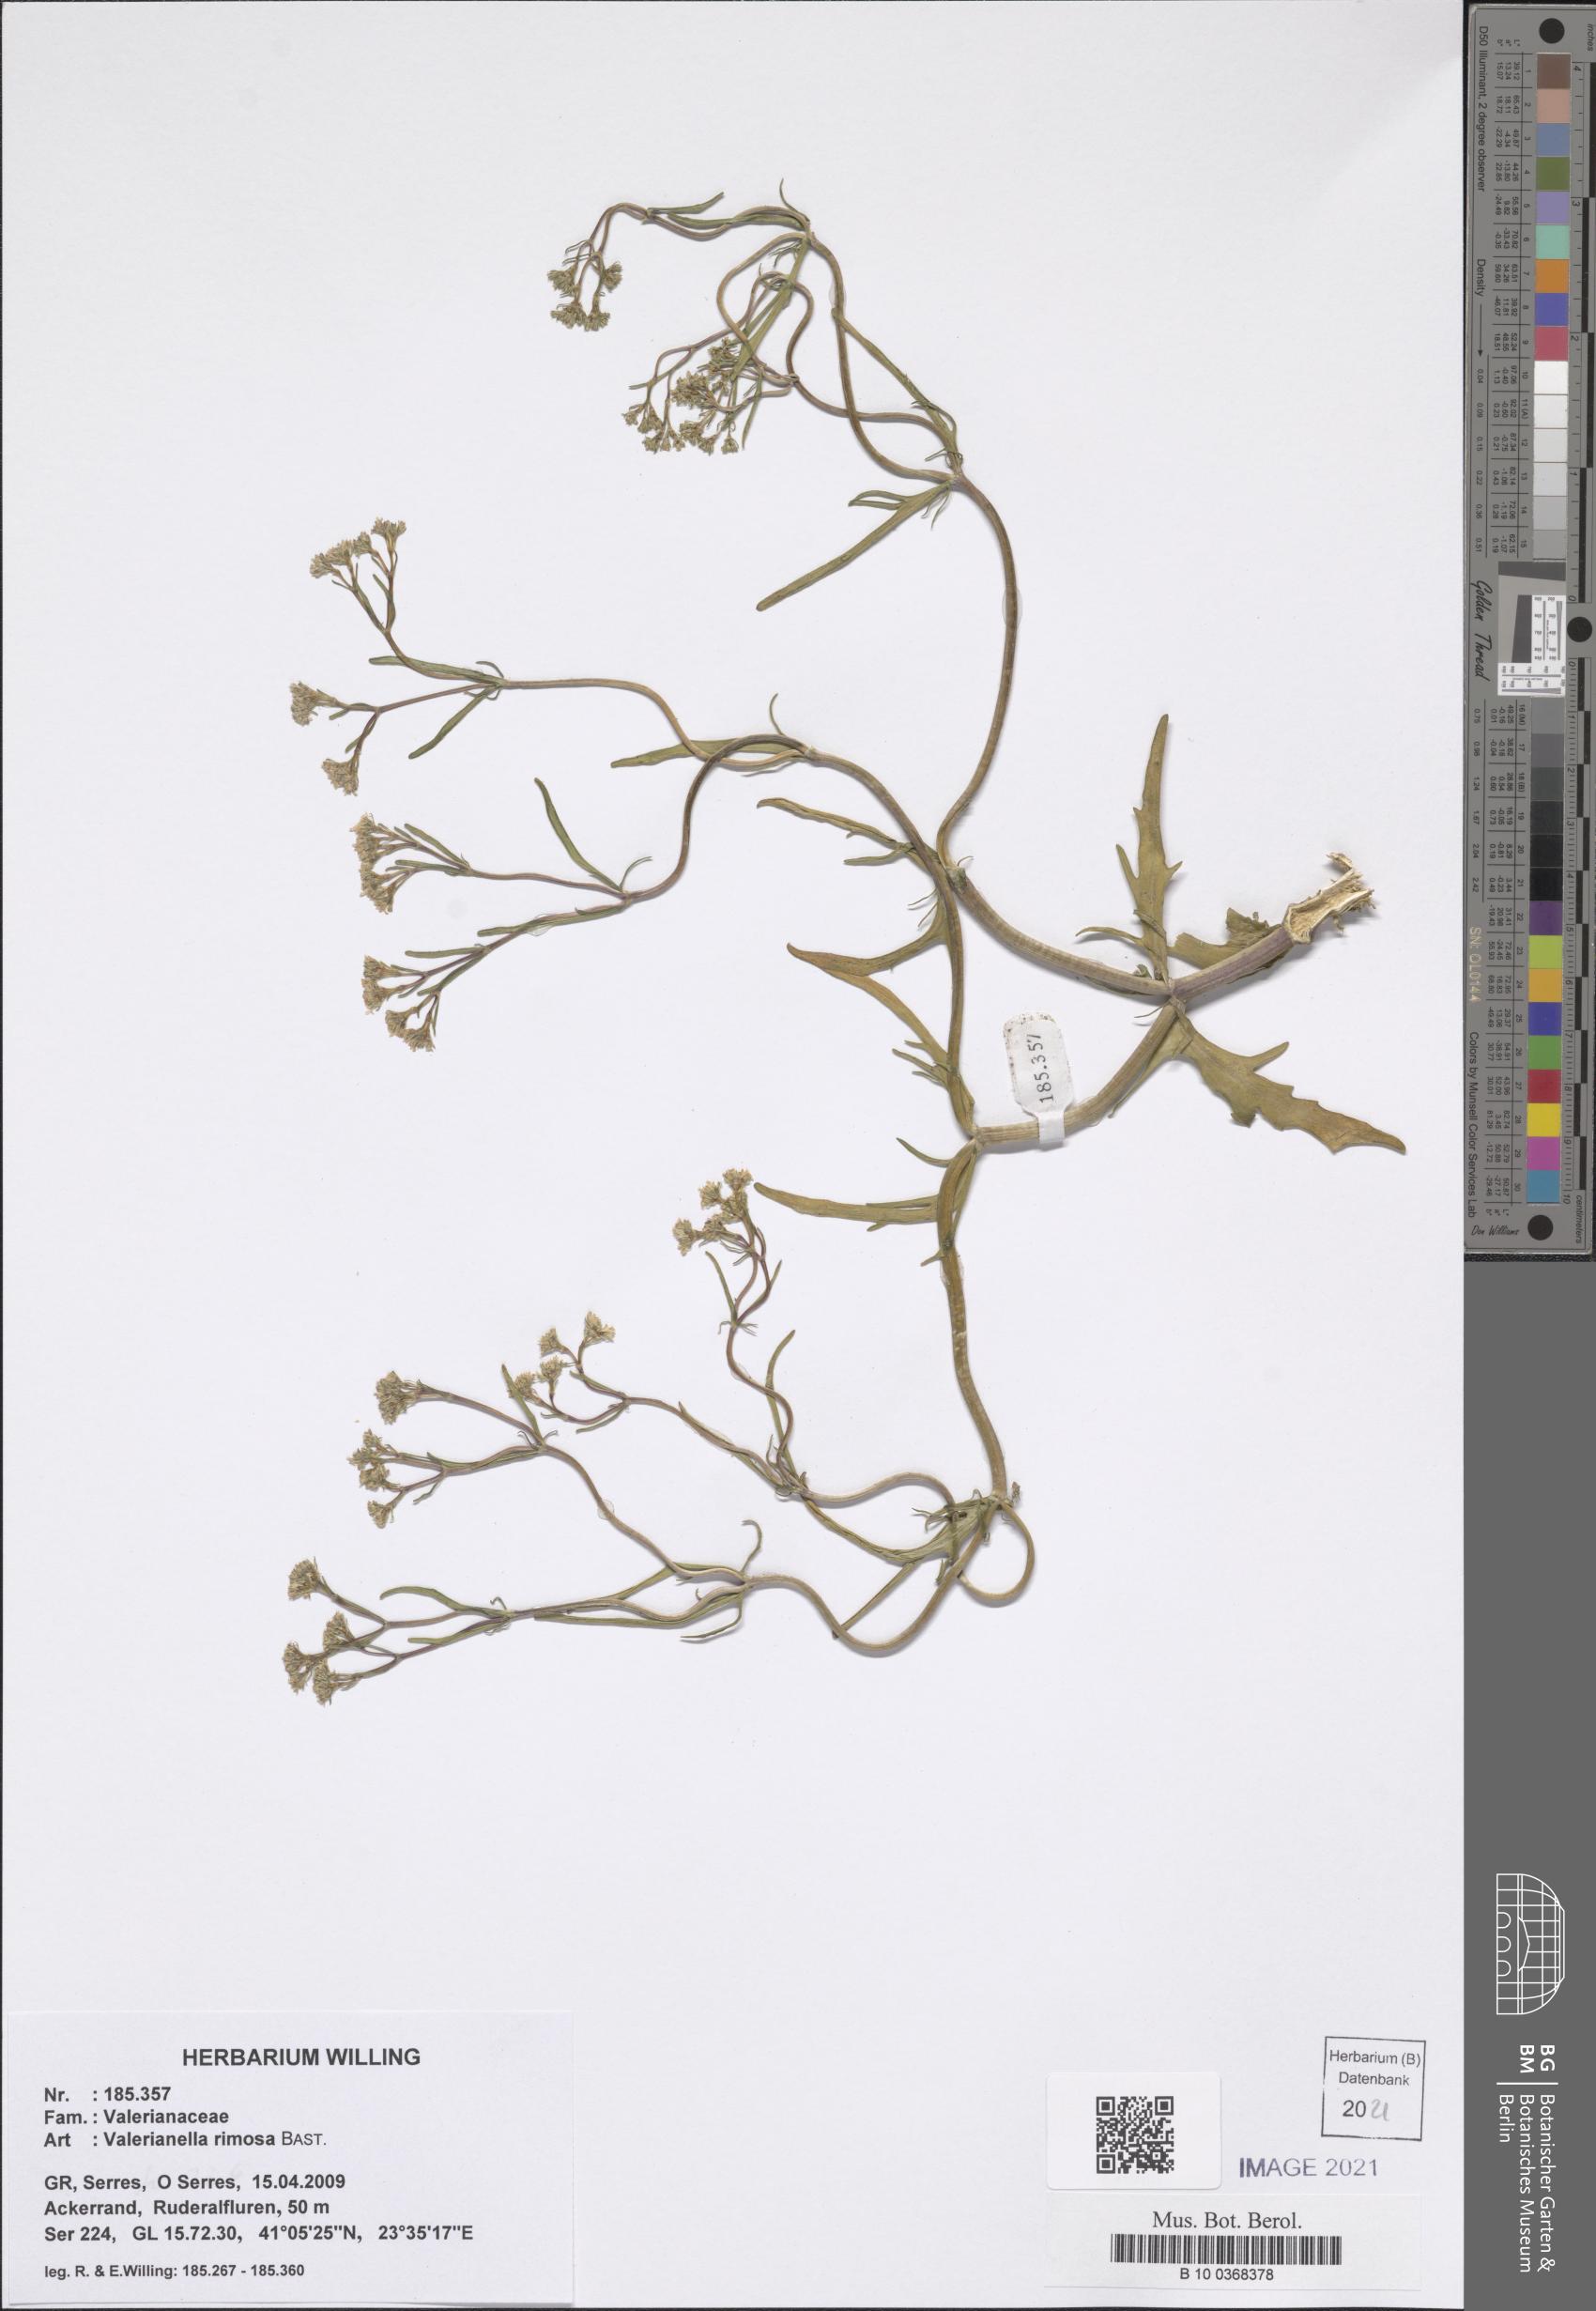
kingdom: Plantae
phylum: Tracheophyta
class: Magnoliopsida
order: Dipsacales
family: Caprifoliaceae
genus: Valerianella
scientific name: Valerianella rimosa
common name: Broad-fruited cornsalad
